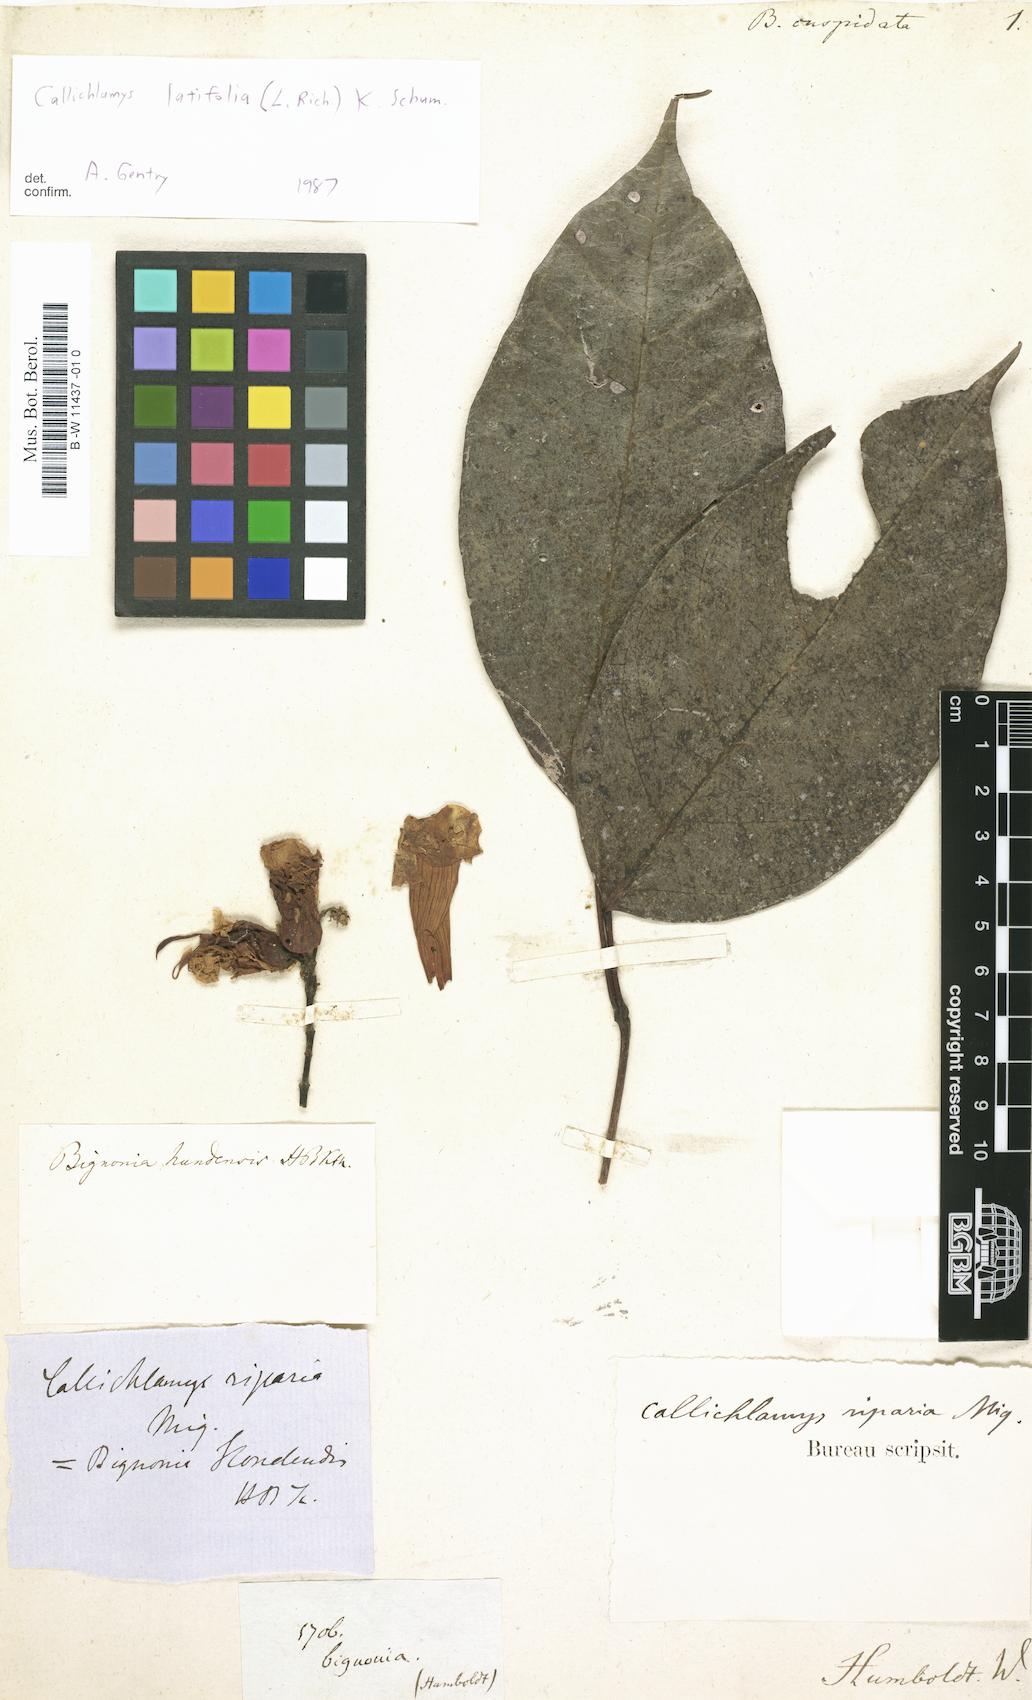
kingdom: Plantae
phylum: Tracheophyta
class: Magnoliopsida
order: Lamiales
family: Bignoniaceae
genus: Bignonia
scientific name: Bignonia cuspidata
